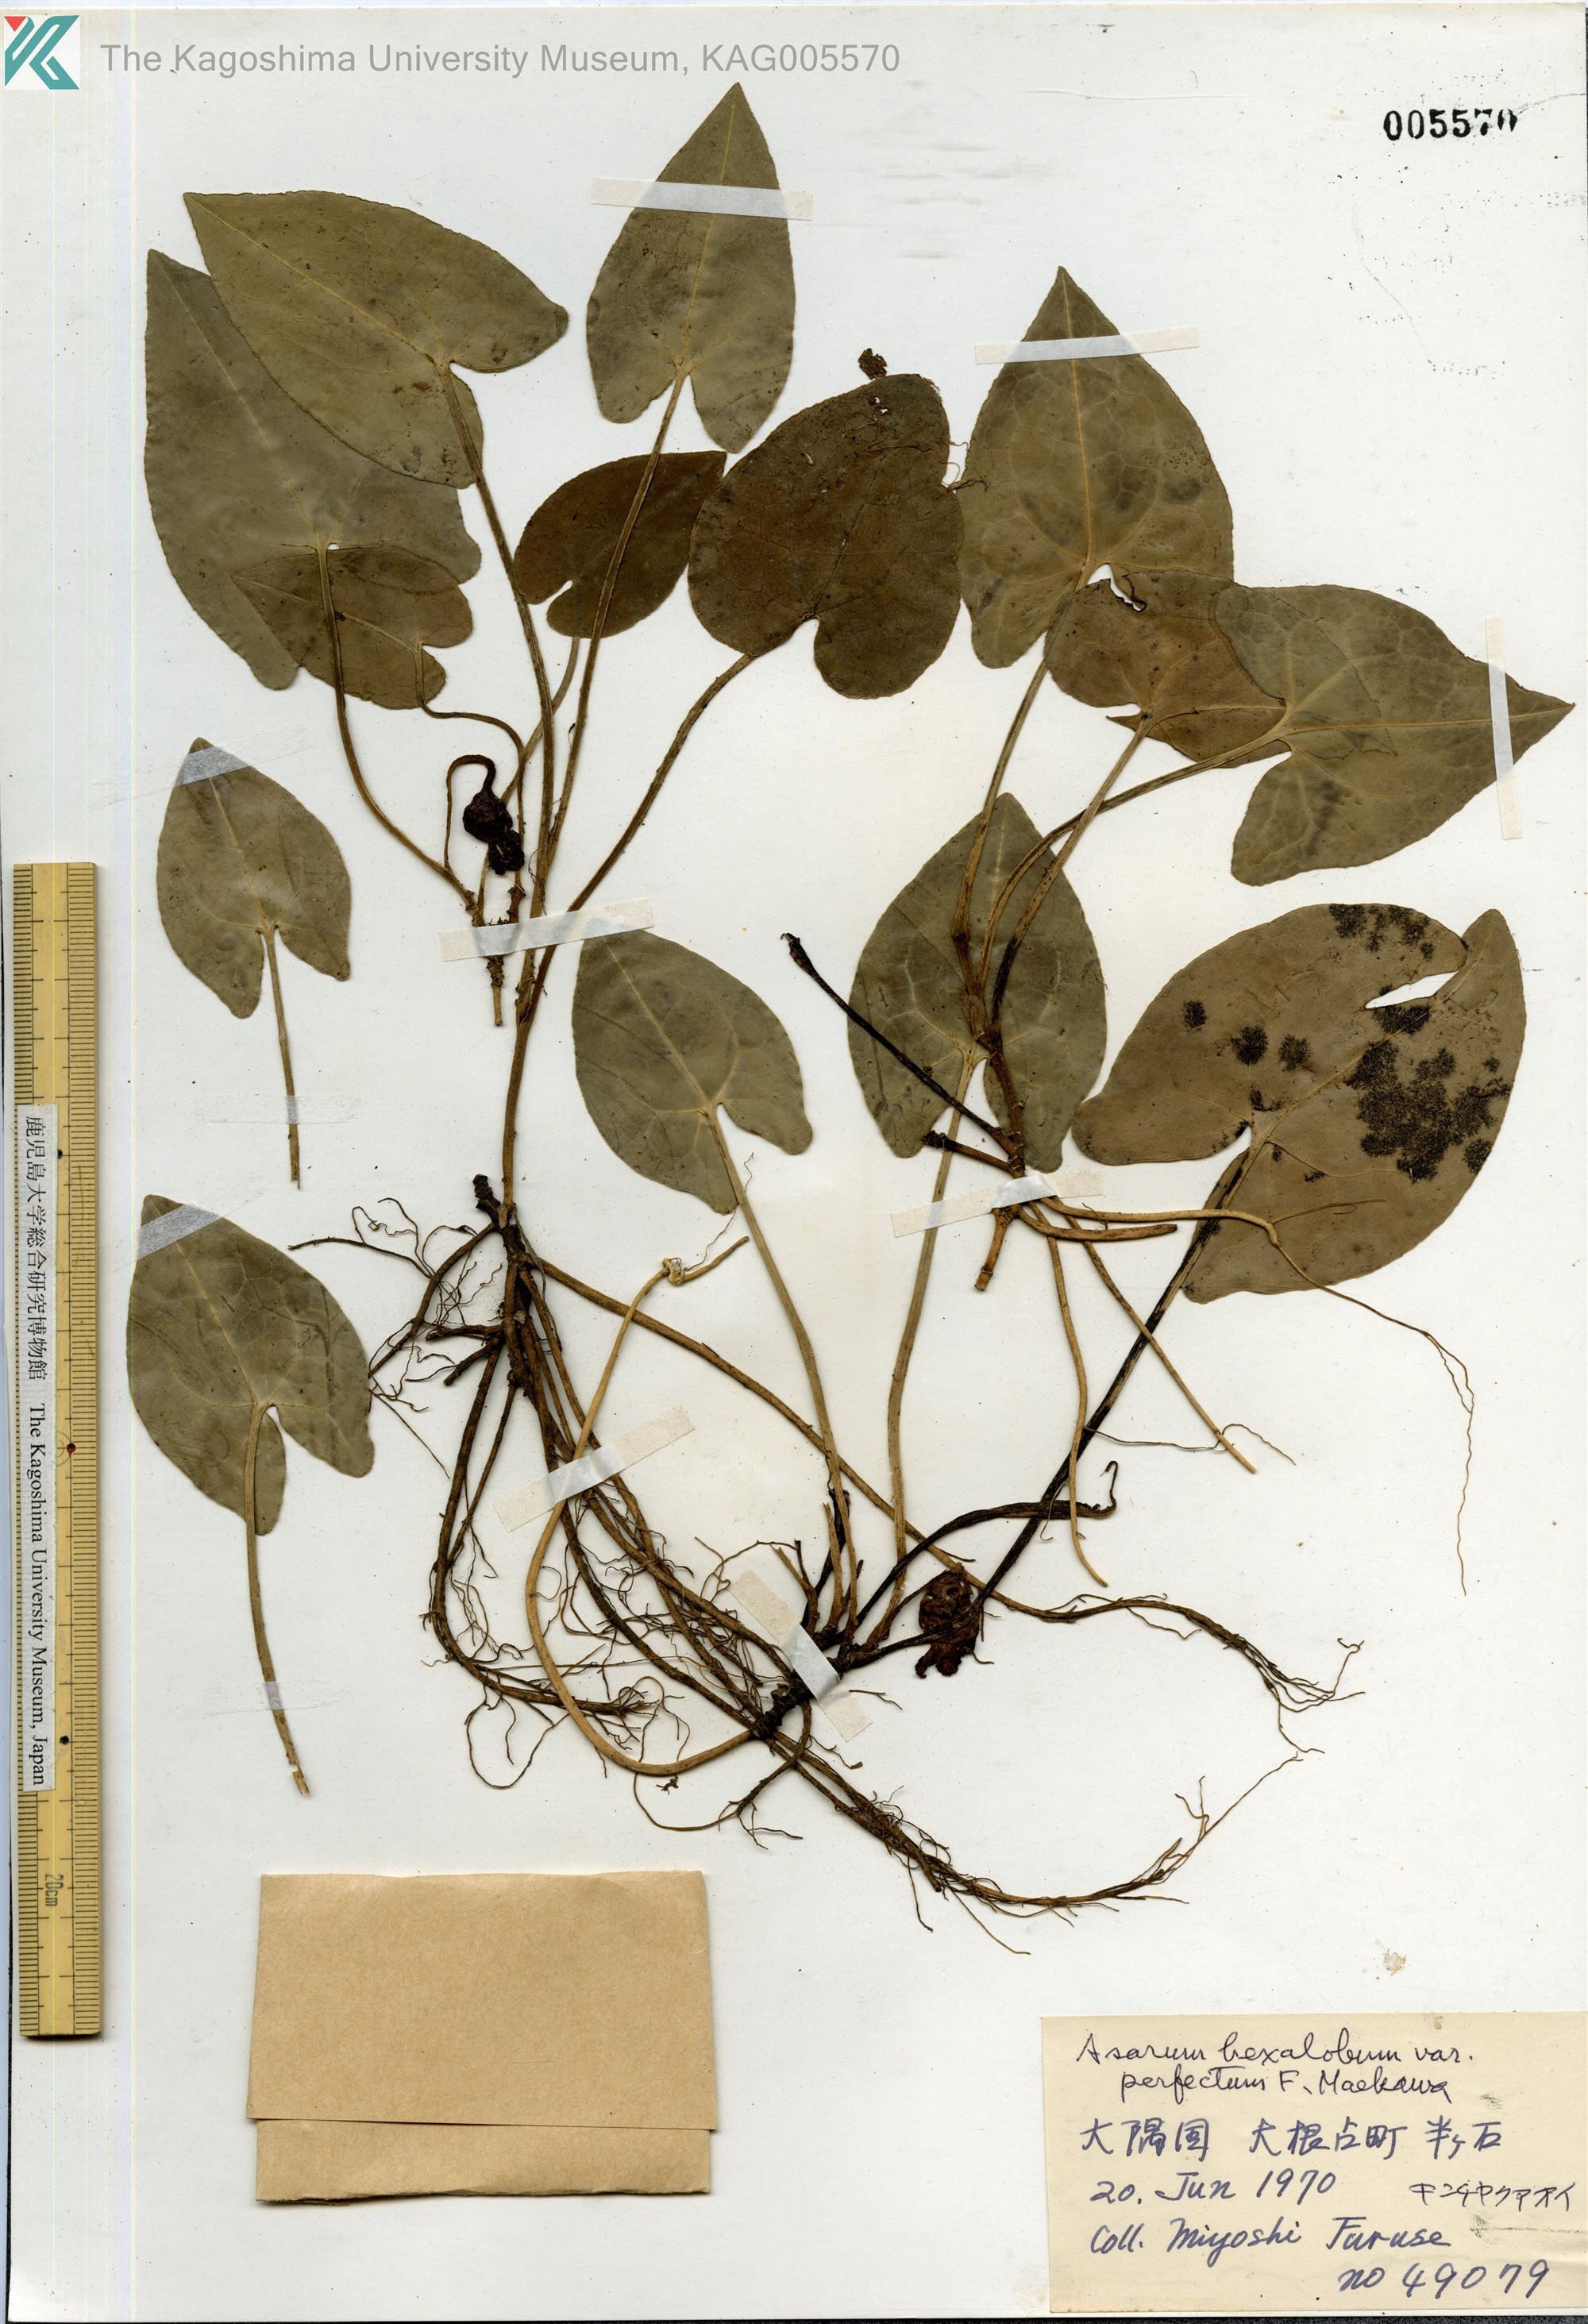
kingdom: Plantae
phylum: Tracheophyta
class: Magnoliopsida
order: Piperales
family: Aristolochiaceae
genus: Asarum
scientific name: Asarum hexalobum
